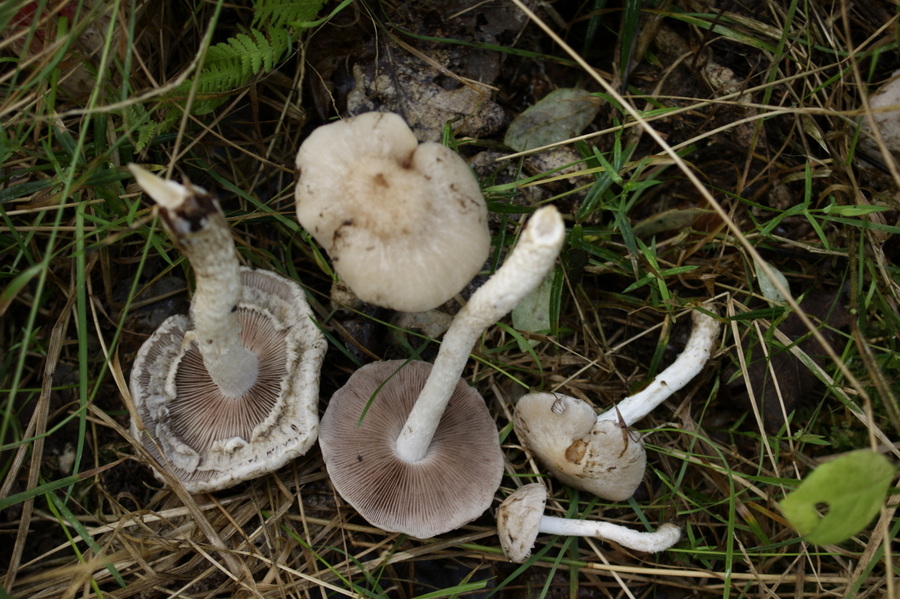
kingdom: Fungi
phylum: Basidiomycota
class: Agaricomycetes
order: Agaricales
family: Psathyrellaceae
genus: Psathyrella
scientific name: Psathyrella cotonea
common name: skællet mørkhat
